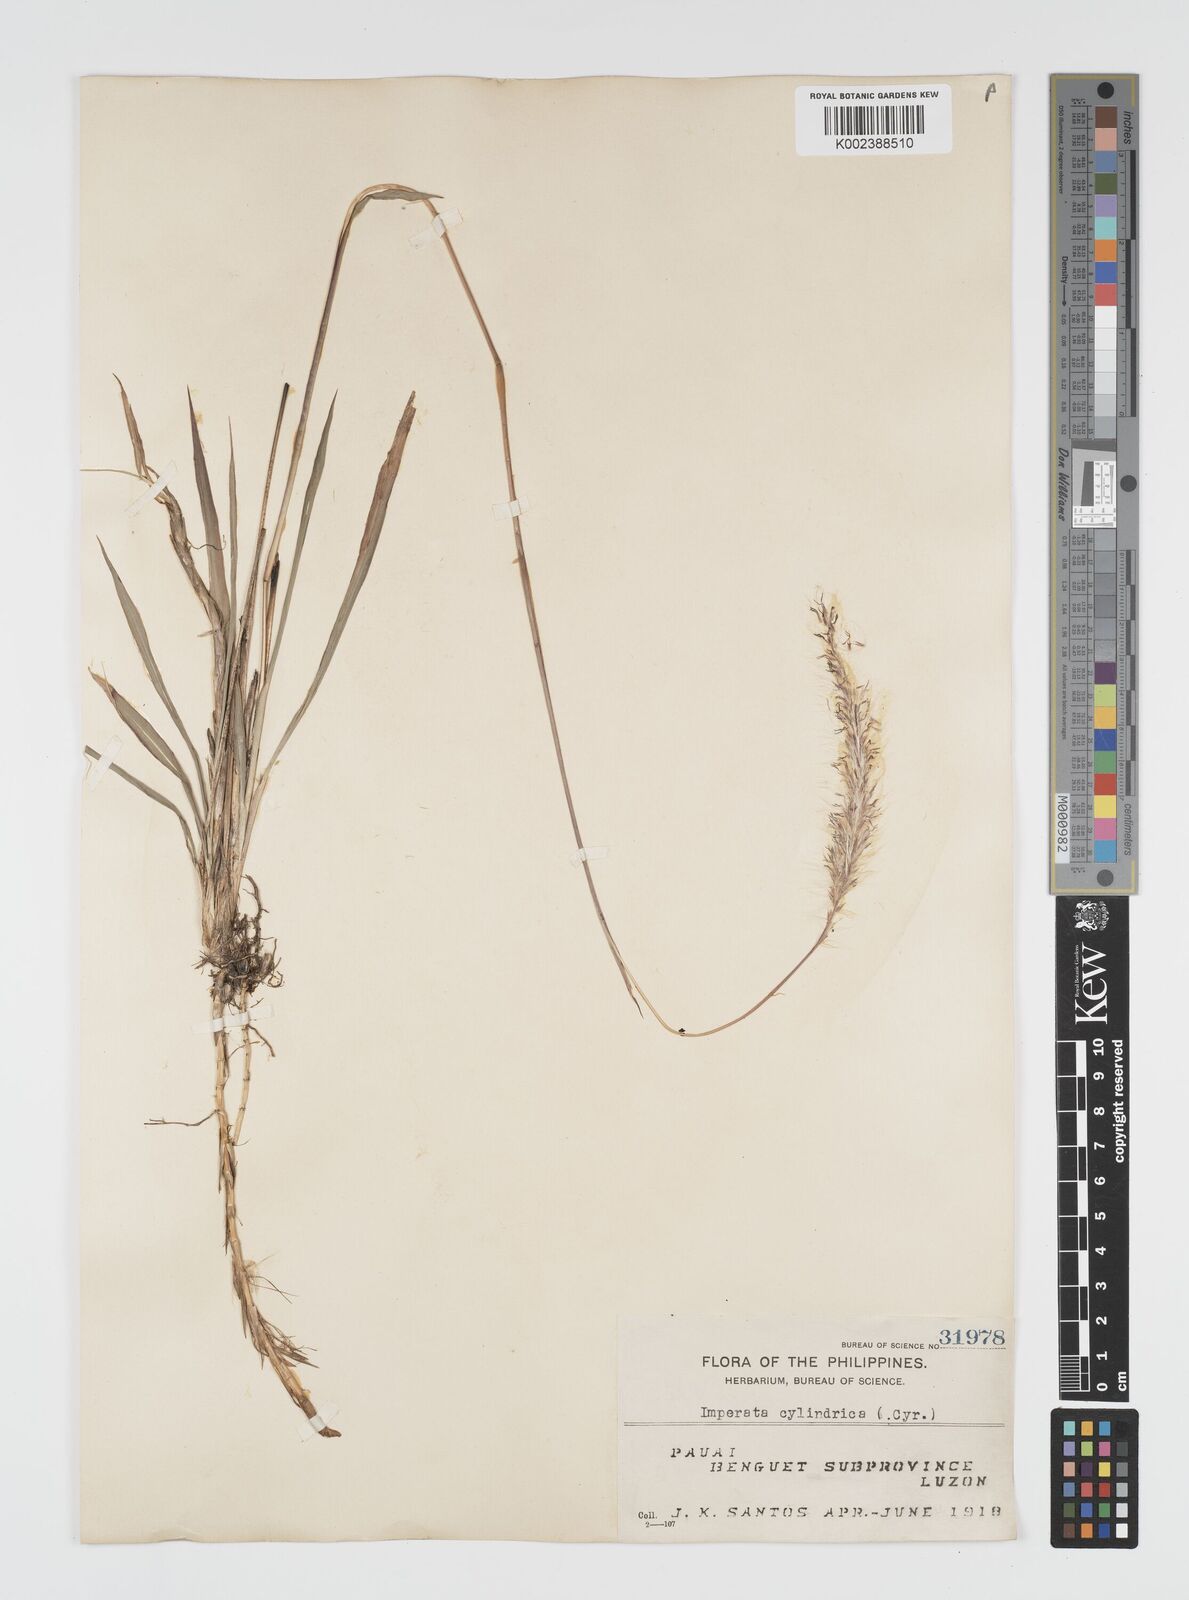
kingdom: Plantae
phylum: Tracheophyta
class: Liliopsida
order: Poales
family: Poaceae
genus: Imperata
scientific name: Imperata cylindrica
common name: Cogongrass
